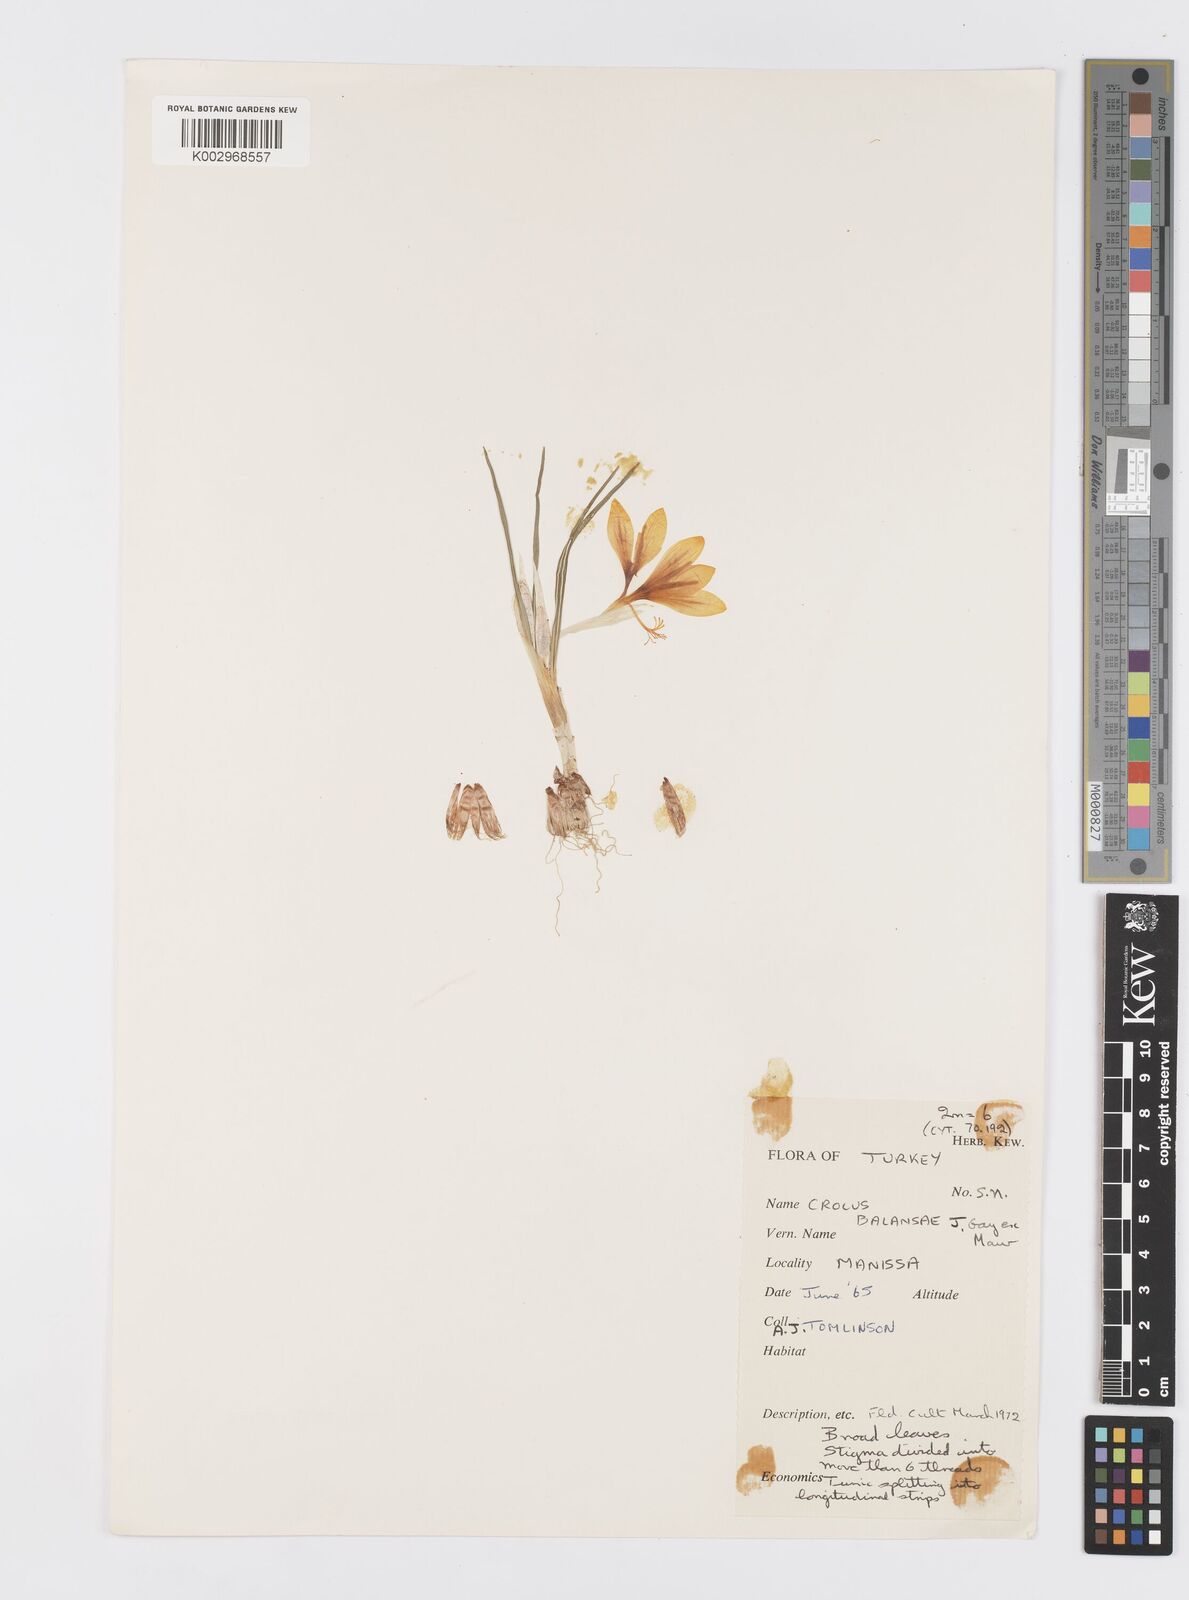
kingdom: Plantae
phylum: Tracheophyta
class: Liliopsida
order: Asparagales
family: Iridaceae
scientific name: Iridaceae
